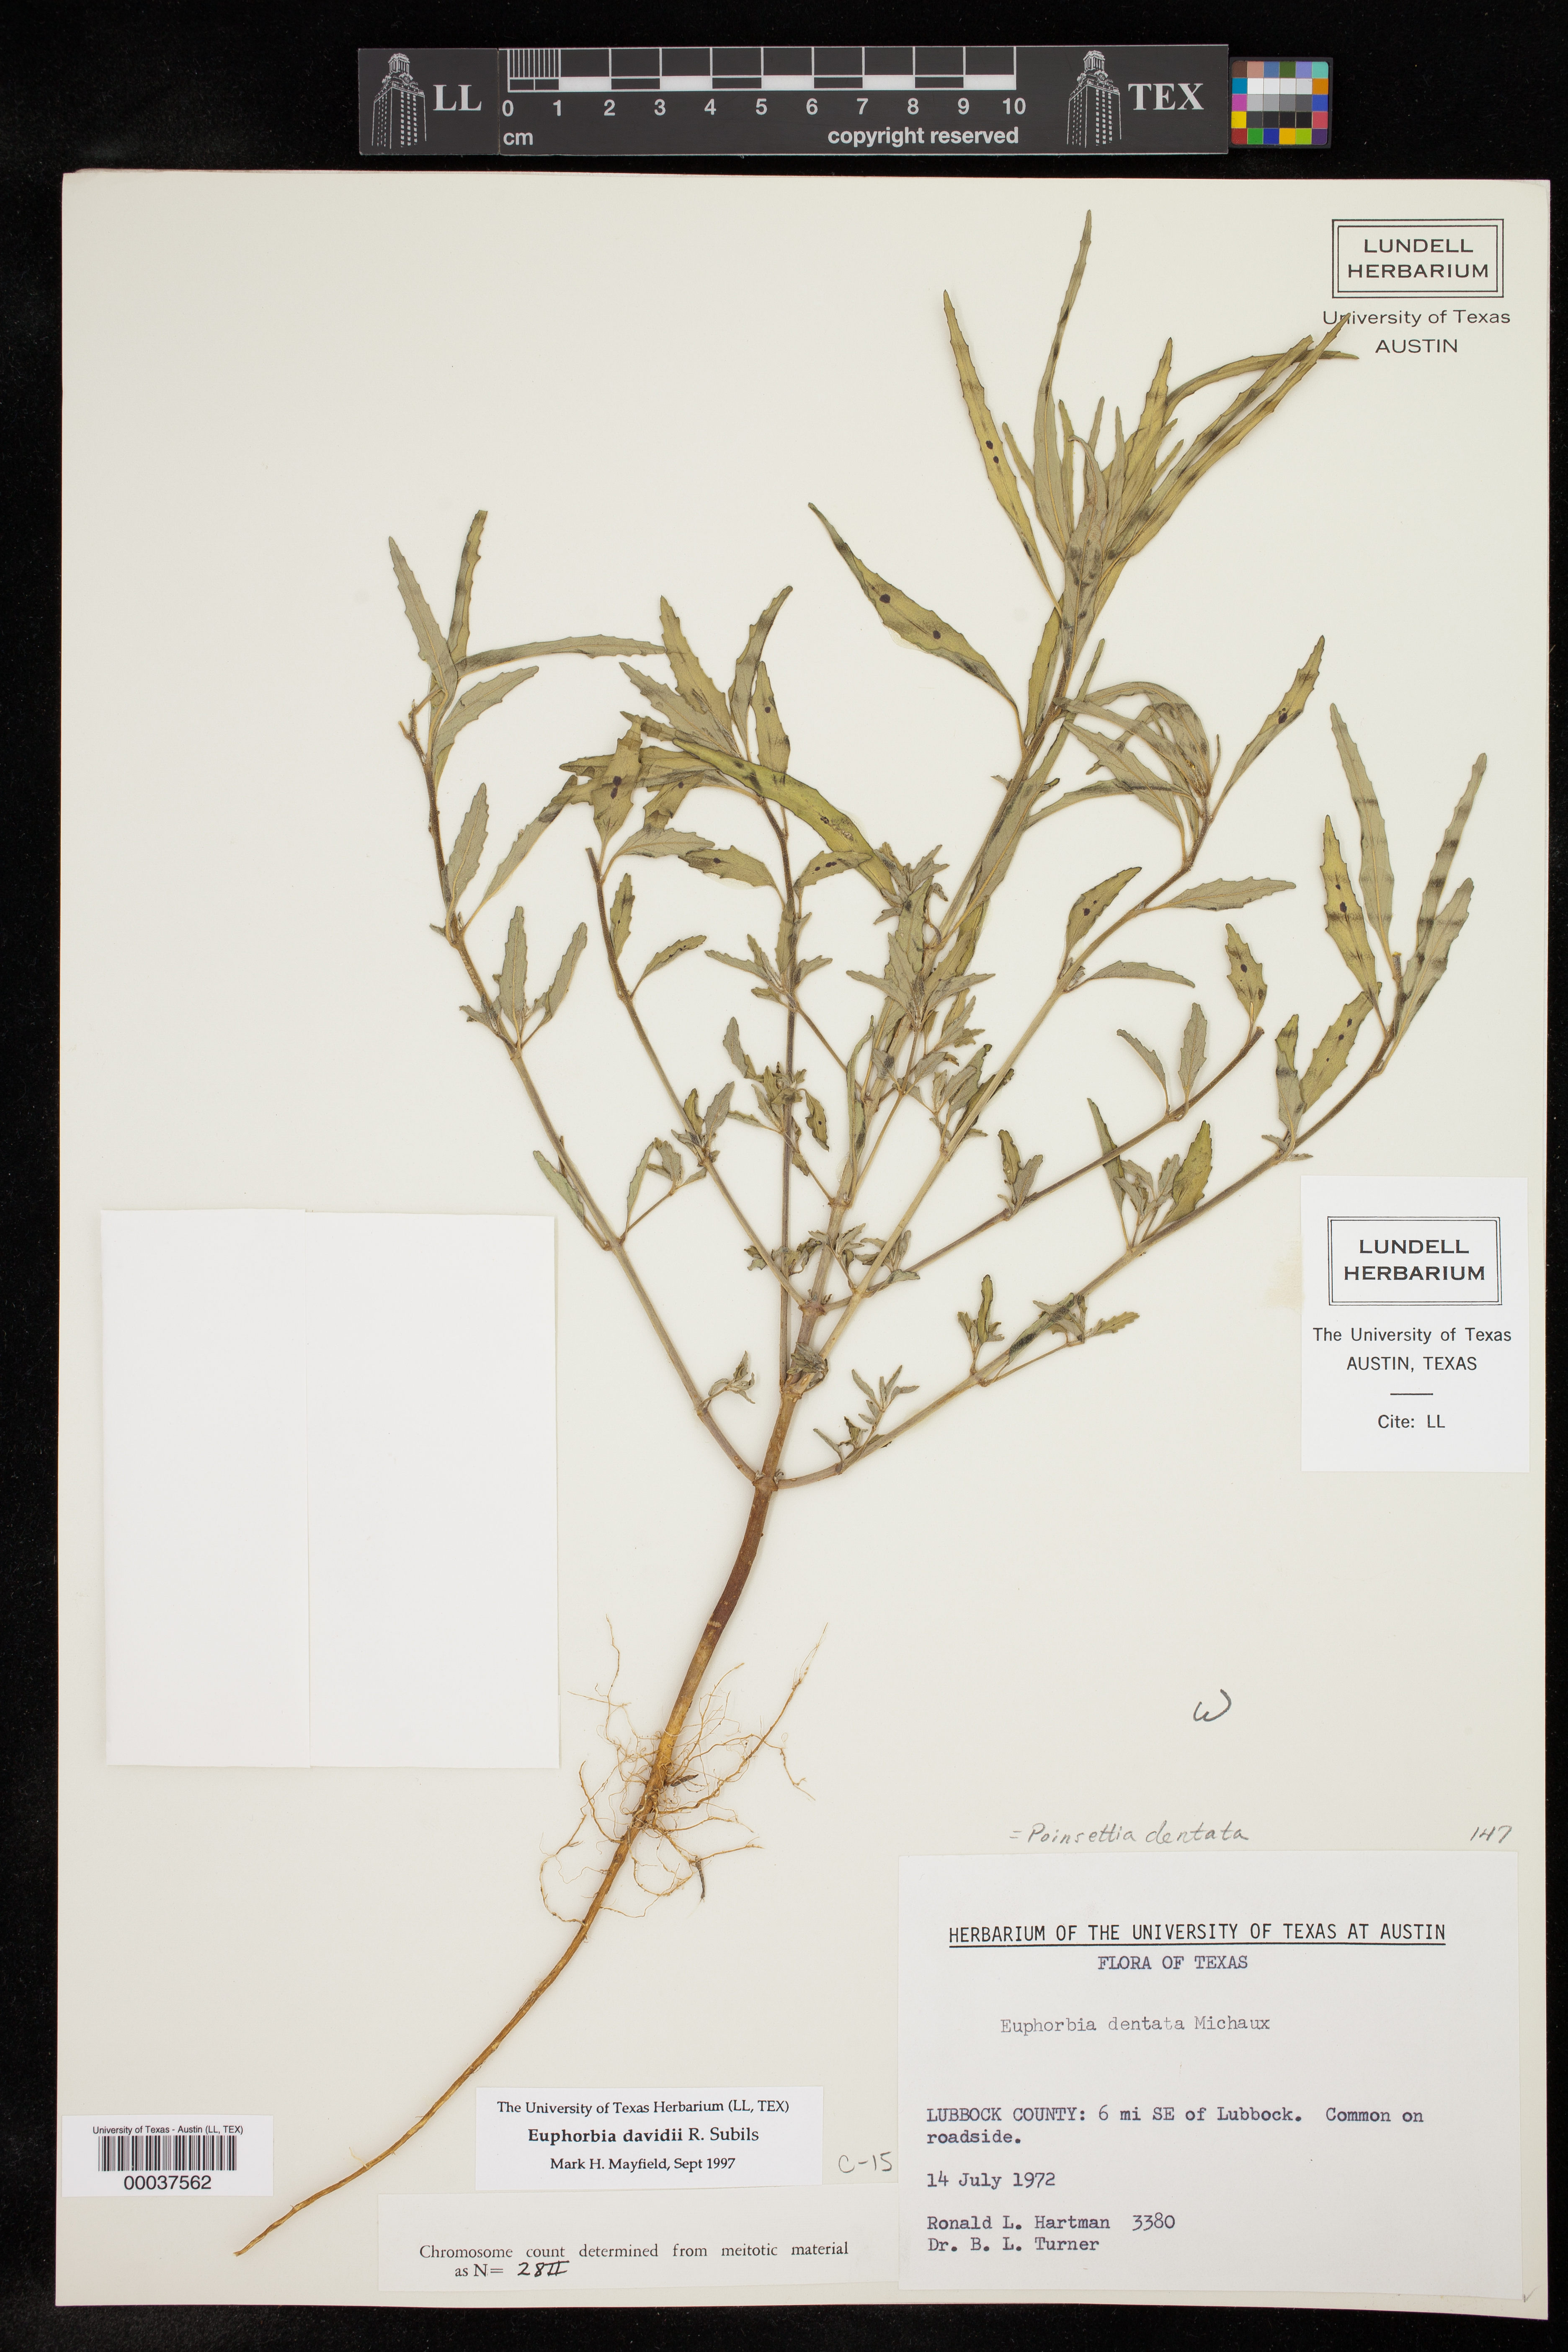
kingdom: Plantae
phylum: Tracheophyta
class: Magnoliopsida
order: Malpighiales
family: Euphorbiaceae
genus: Euphorbia
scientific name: Euphorbia davidii
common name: David's spurge
